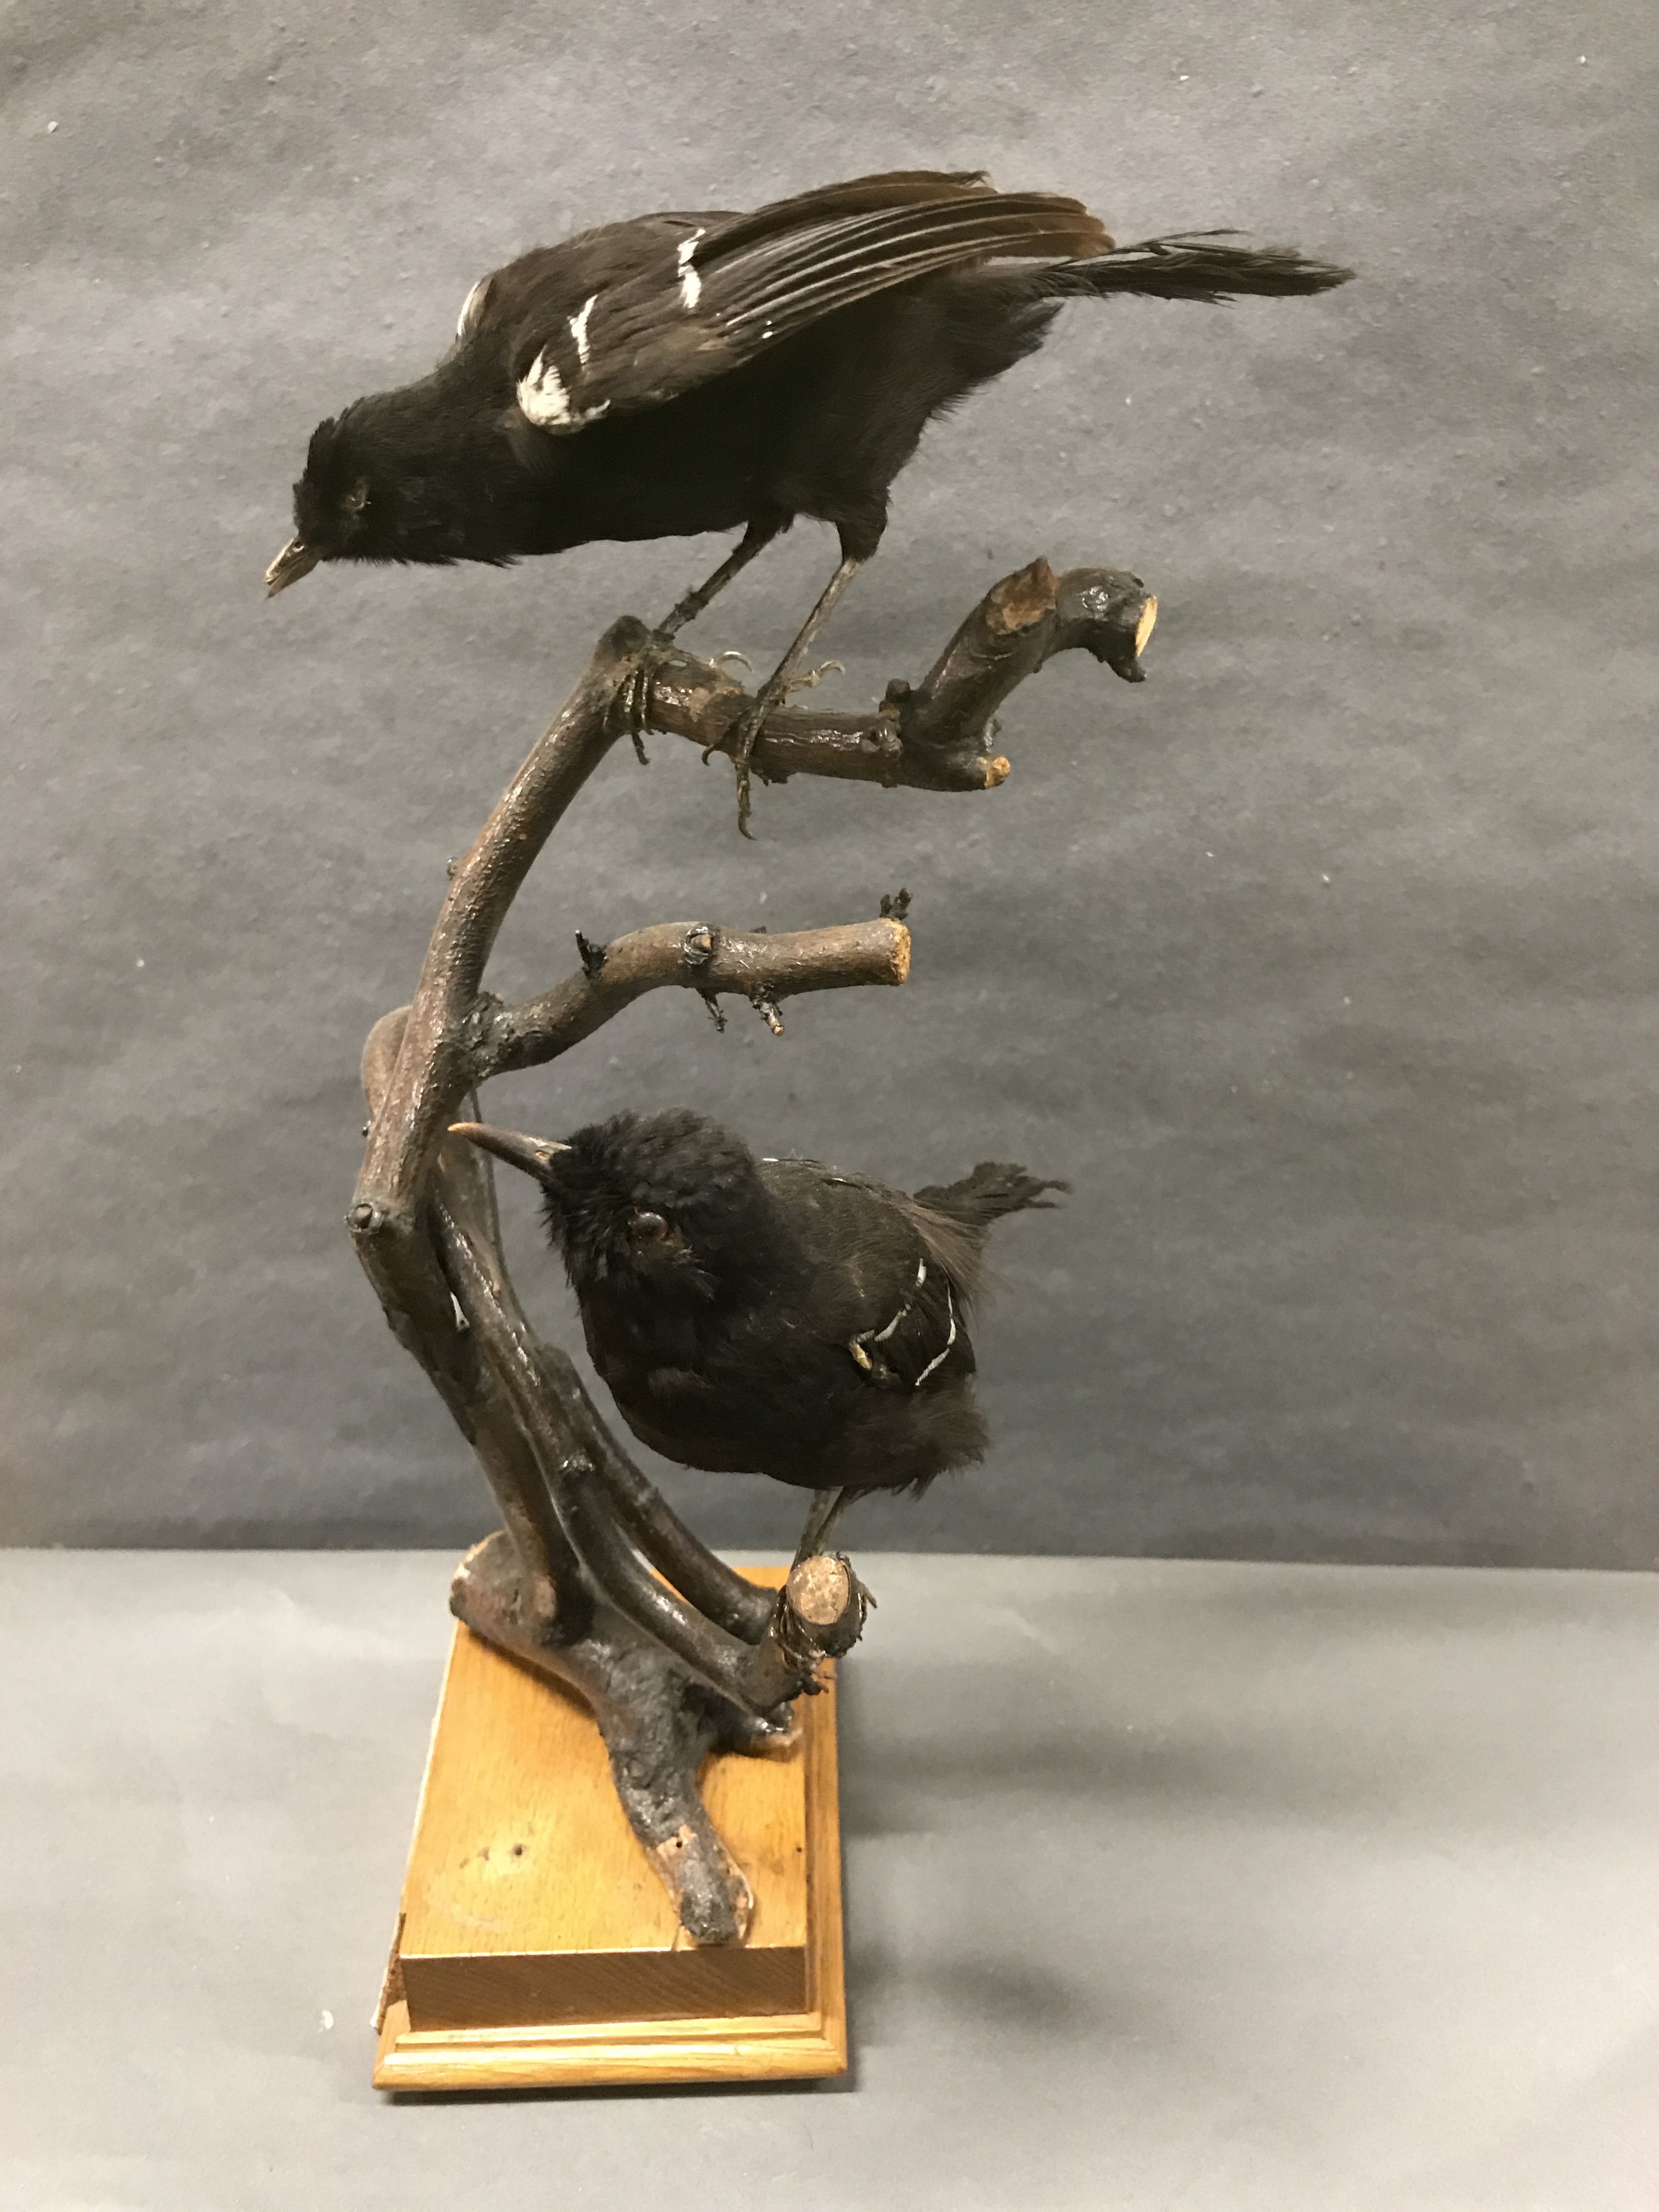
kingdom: Animalia
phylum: Chordata
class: Aves
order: Passeriformes
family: Thamnophilidae
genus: Pyriglena
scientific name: Pyriglena leucoptera
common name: White-shouldered fire-eye
